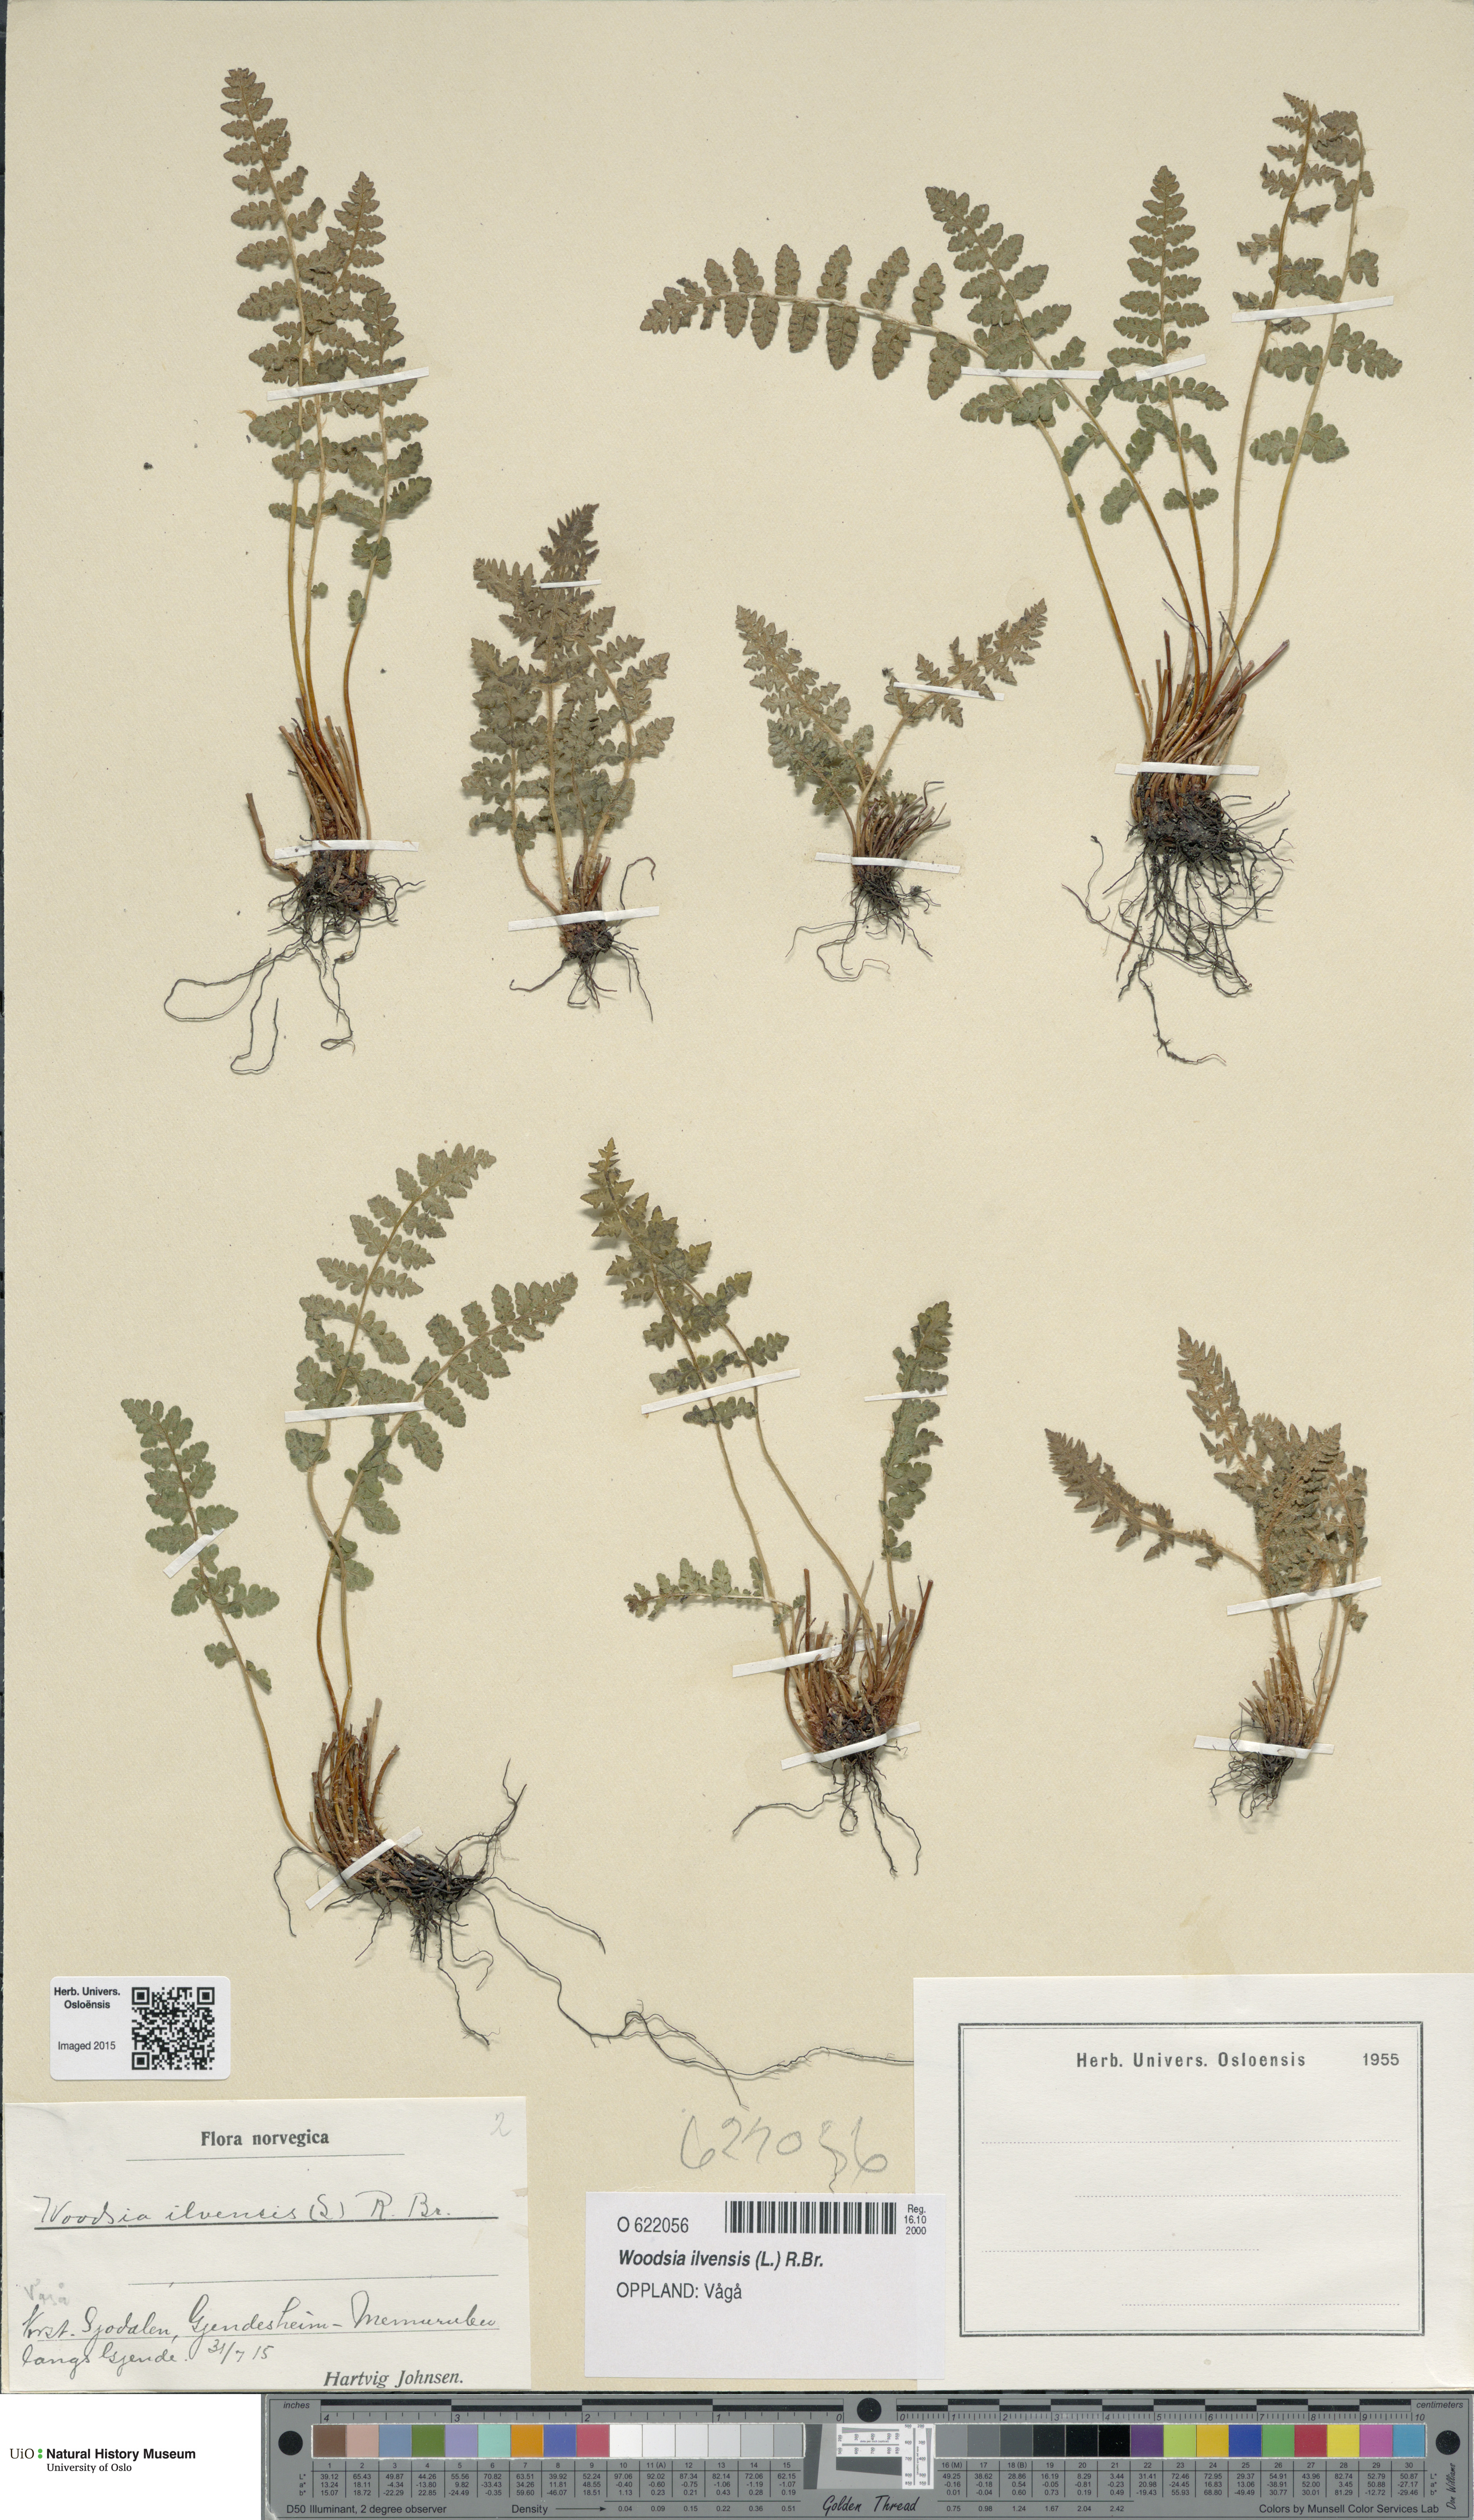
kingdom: Plantae
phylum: Tracheophyta
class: Polypodiopsida
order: Polypodiales
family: Woodsiaceae
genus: Woodsia
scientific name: Woodsia ilvensis
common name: Fragrant woodsia
